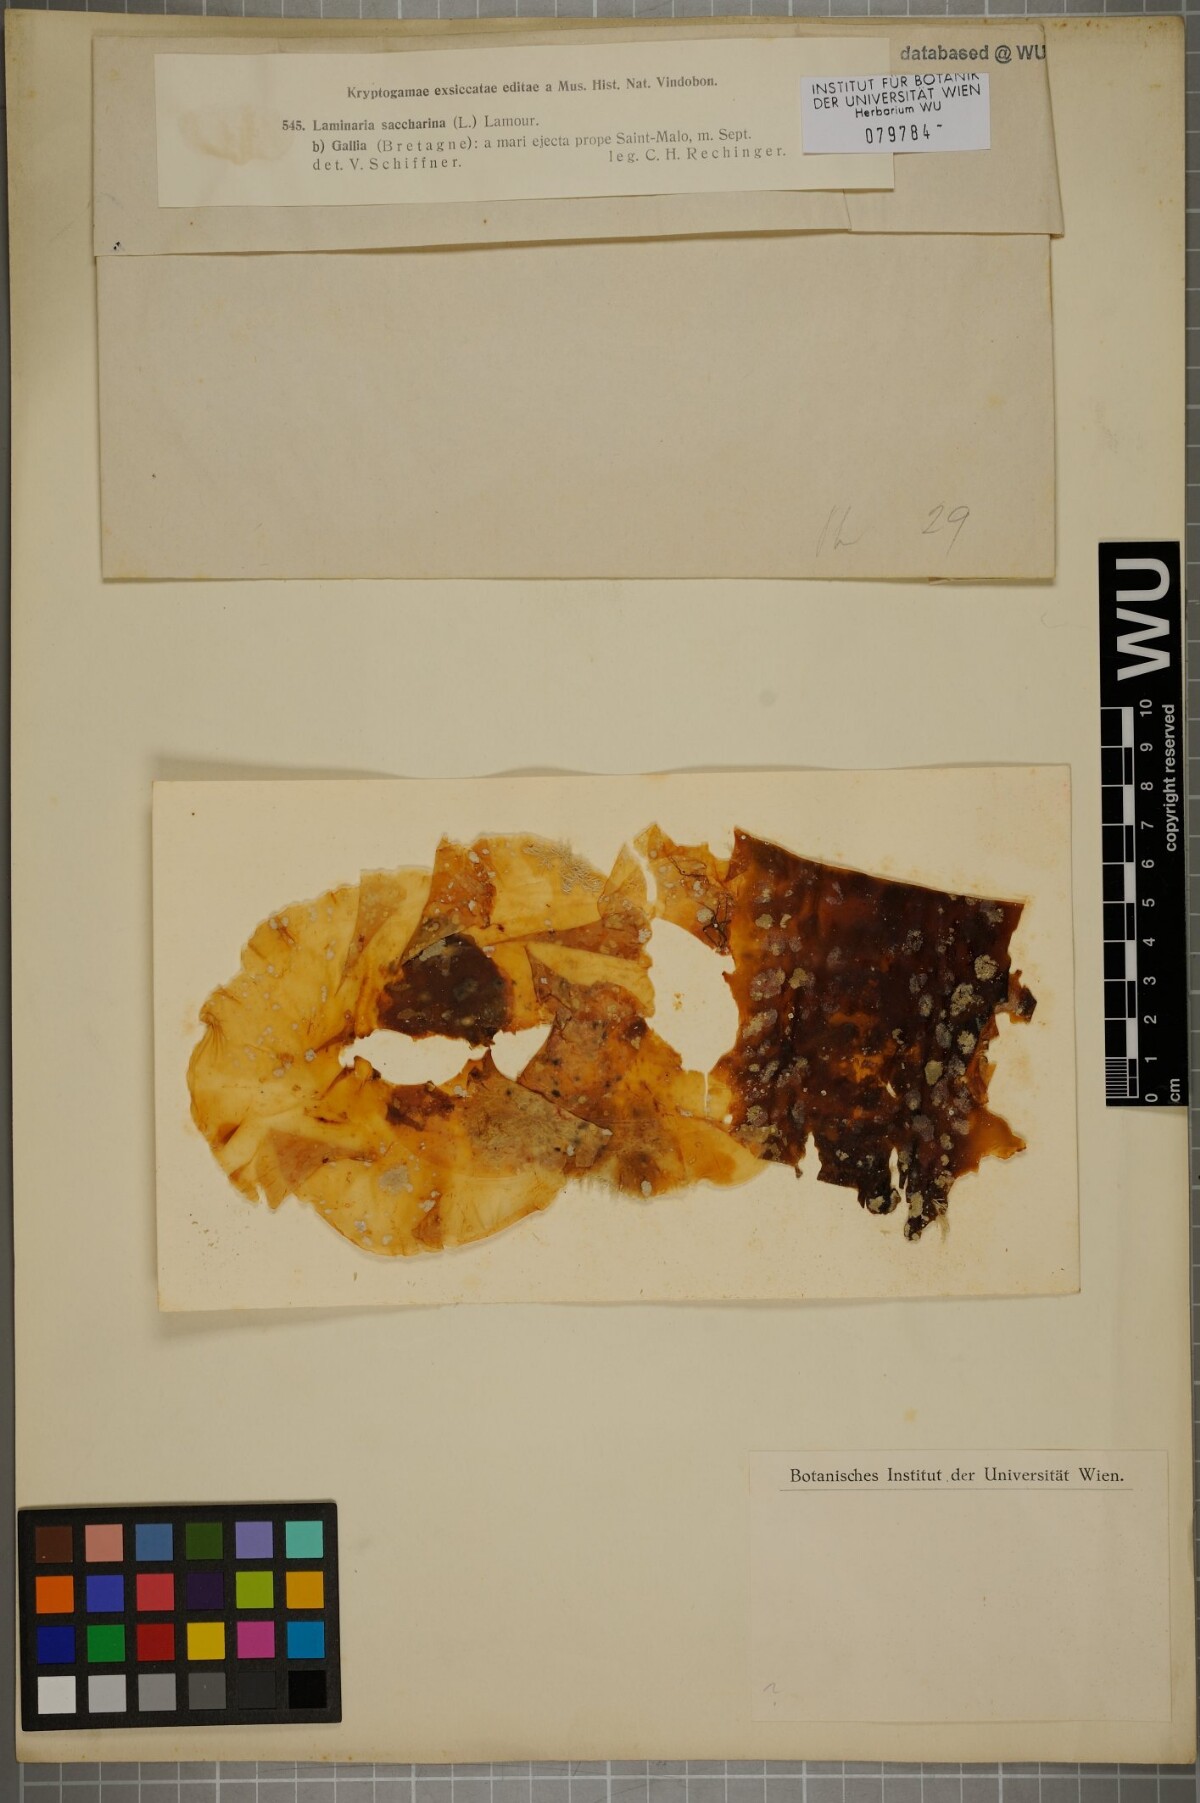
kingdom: Chromista
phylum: Ochrophyta
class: Phaeophyceae
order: Laminariales
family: Laminariaceae
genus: Saccharina
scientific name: Saccharina latissima
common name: Poor man's weather glass
